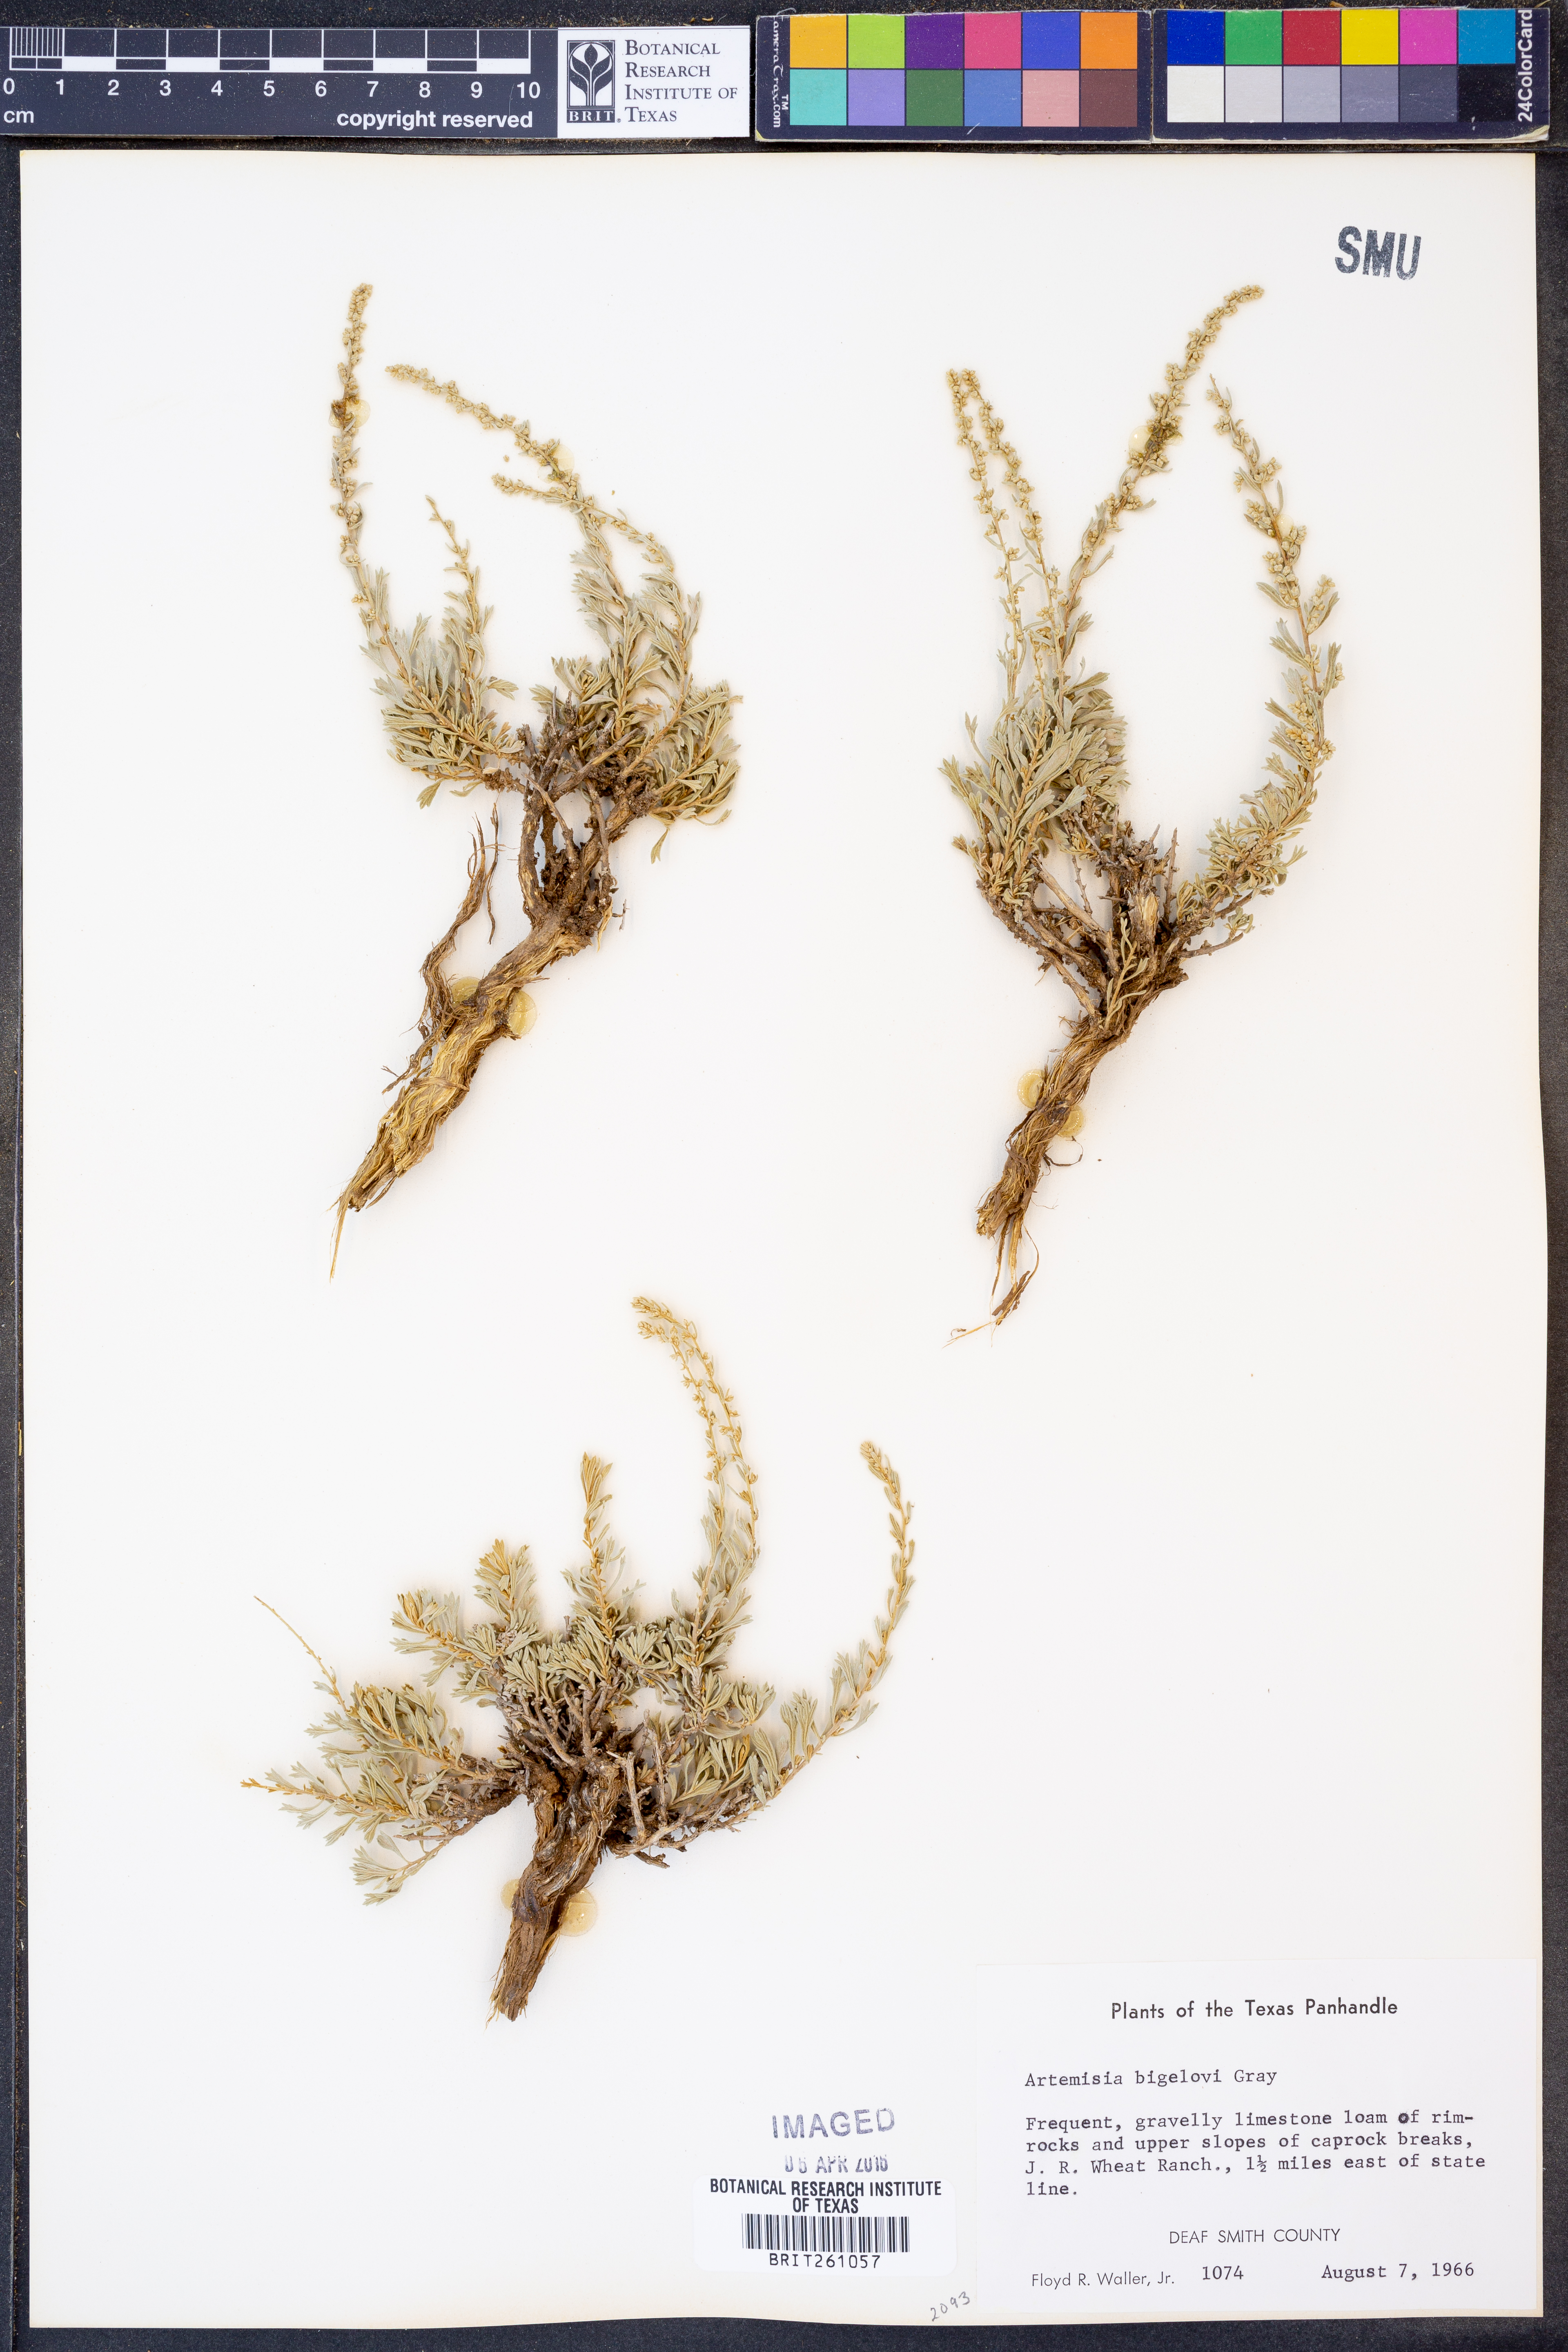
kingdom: Plantae
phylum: Tracheophyta
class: Magnoliopsida
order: Asterales
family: Asteraceae
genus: Artemisia
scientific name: Artemisia bigelovii
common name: Bigelow sagebrush
